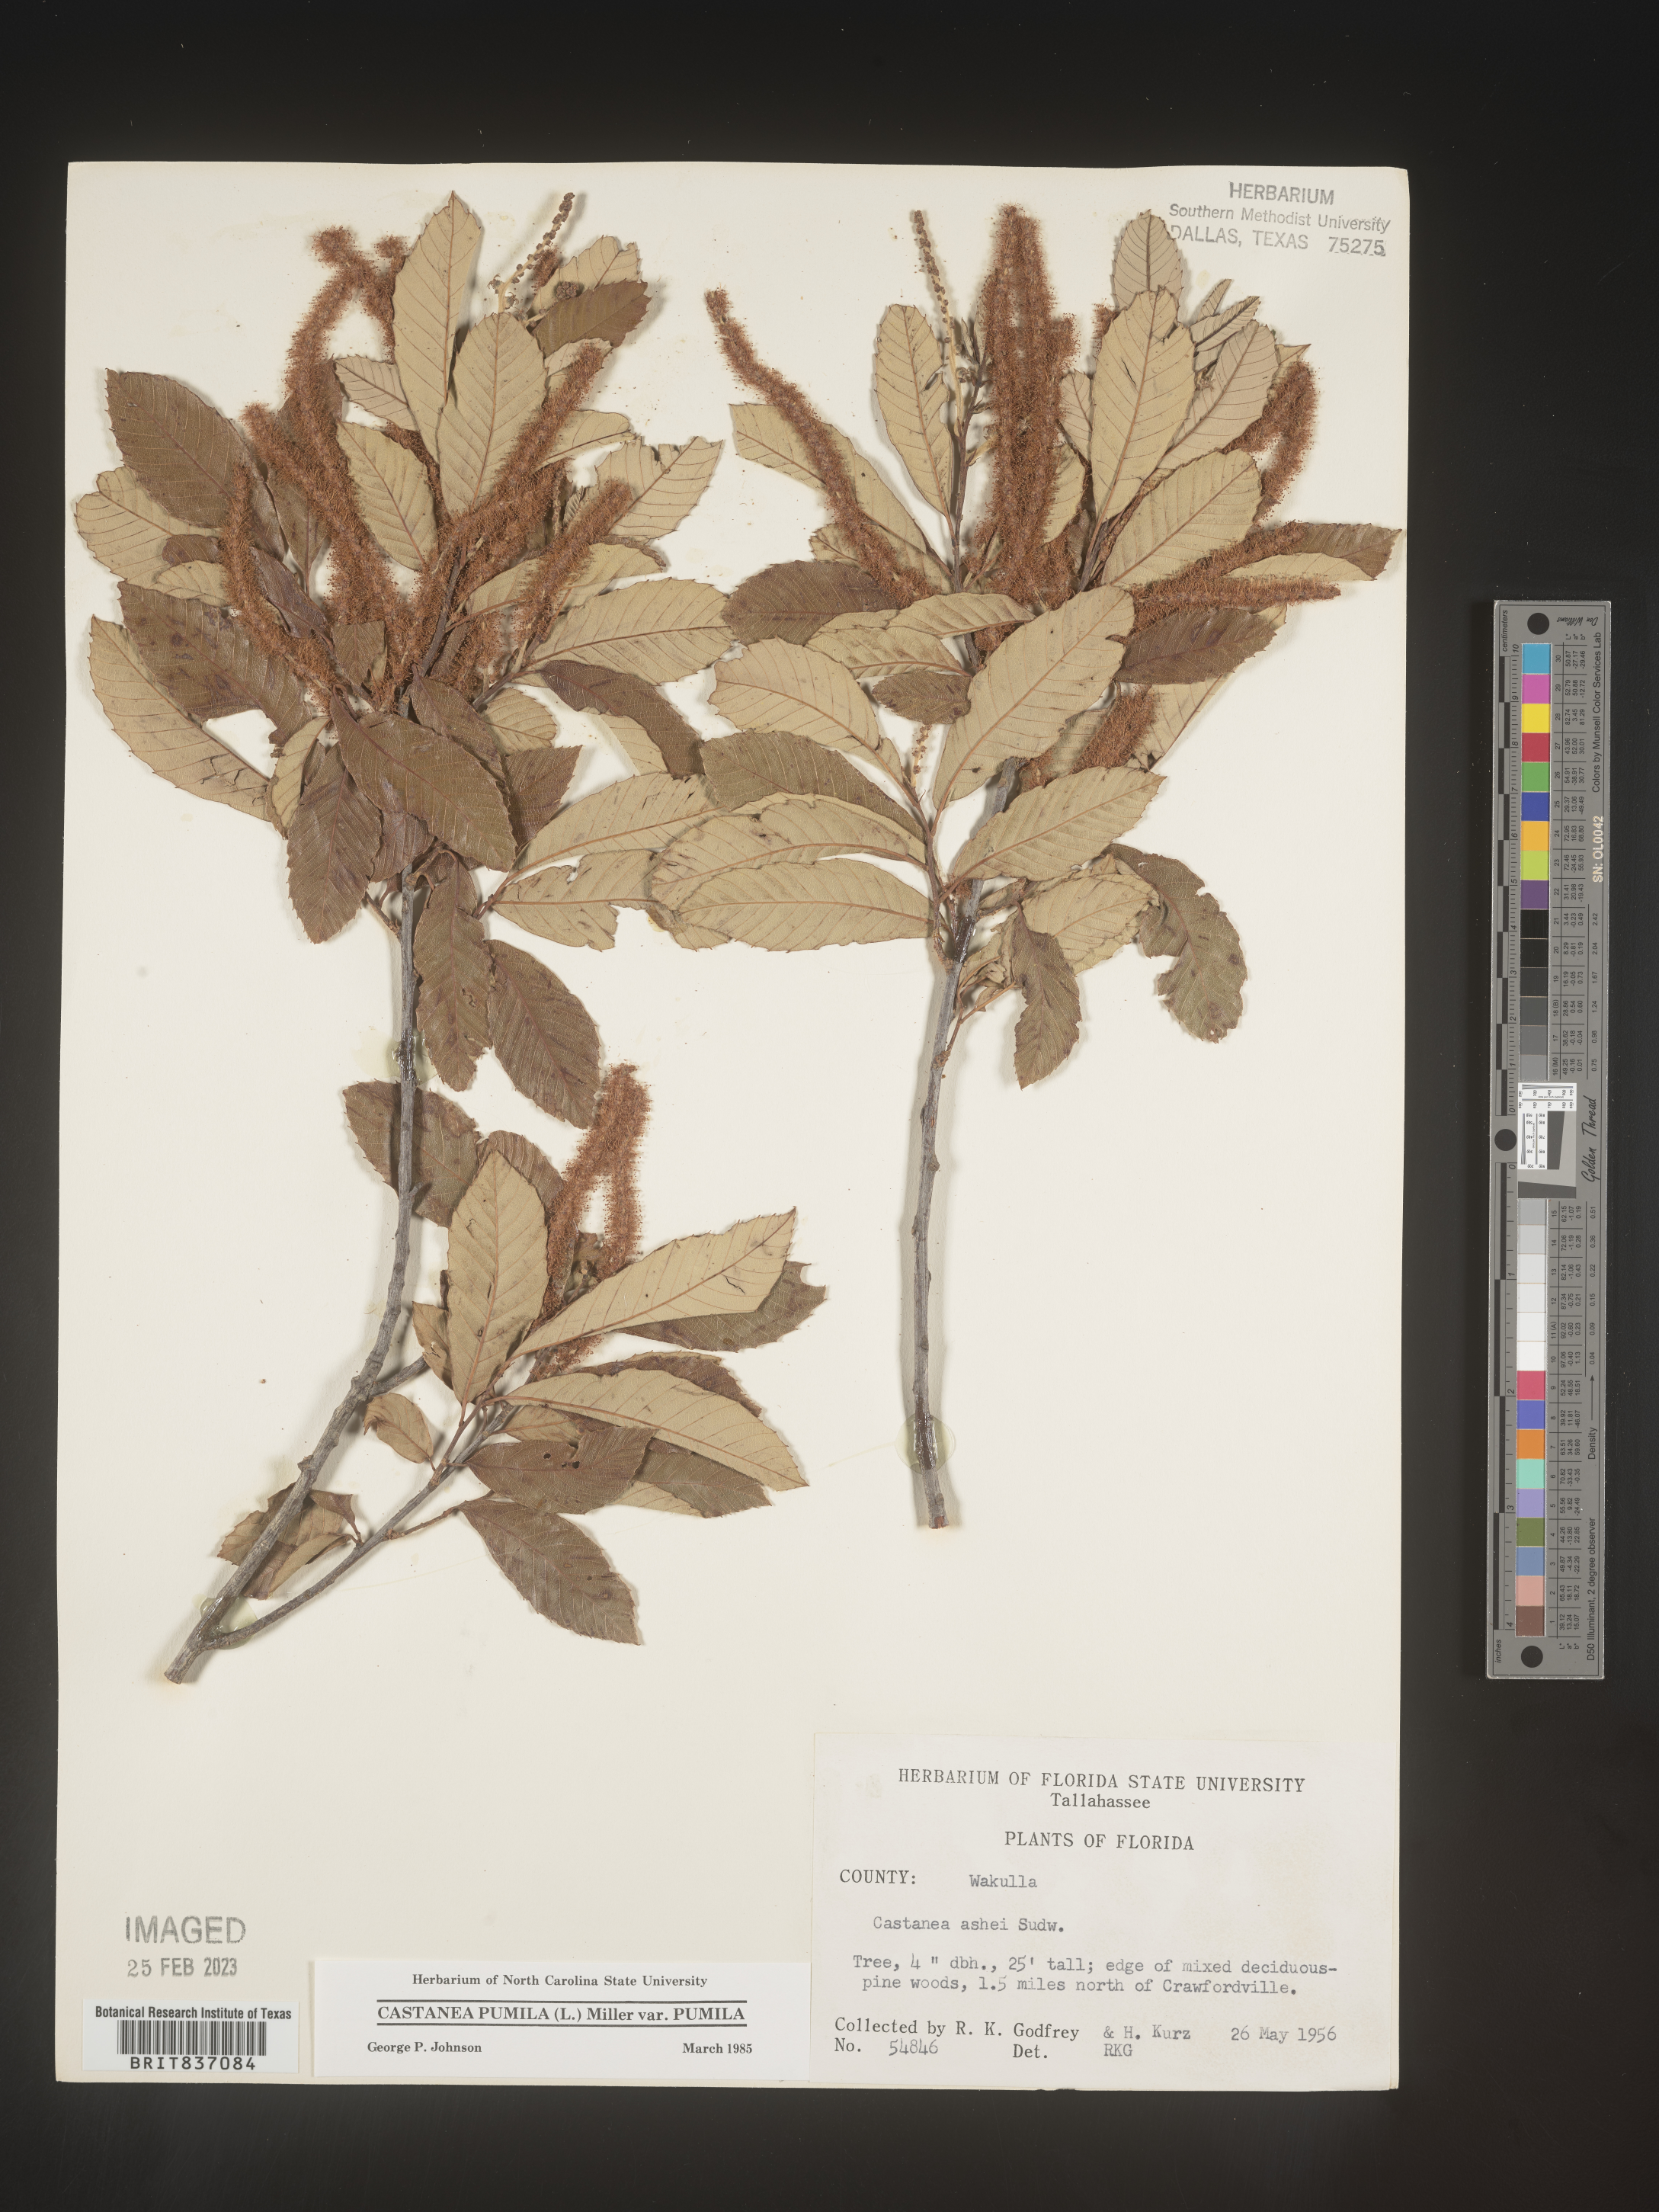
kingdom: Plantae
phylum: Tracheophyta
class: Magnoliopsida
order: Fagales
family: Fagaceae
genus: Castanea
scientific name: Castanea pumila
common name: Chinkapin
